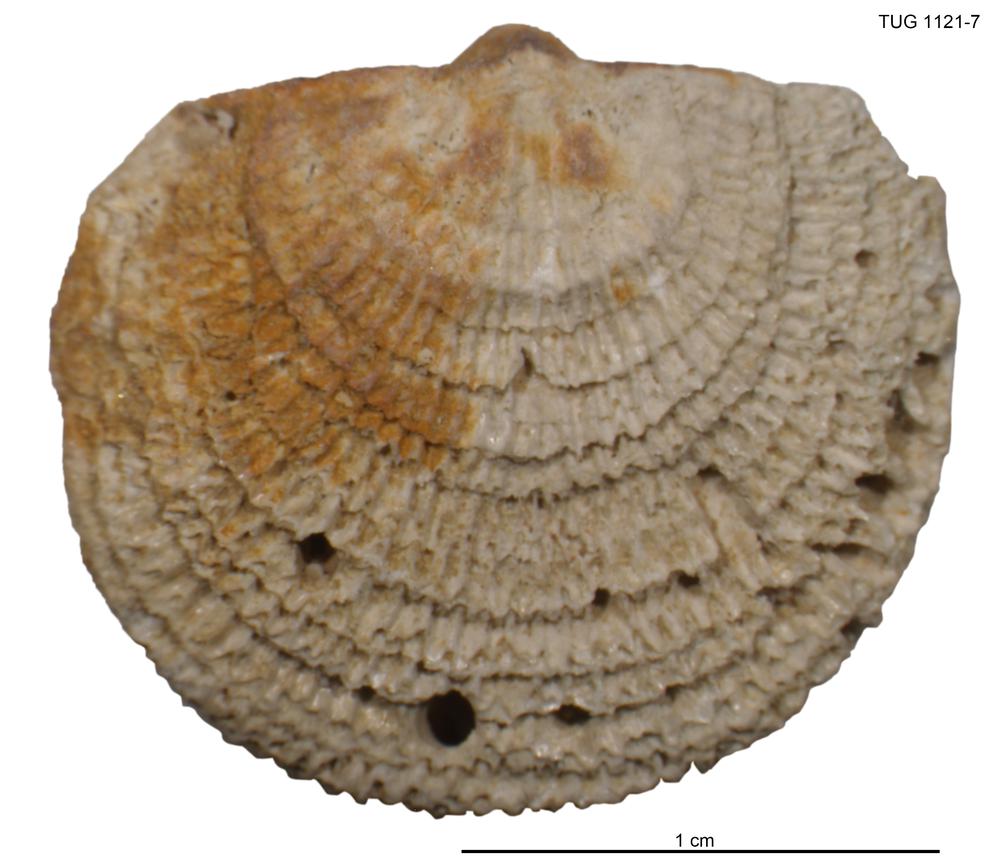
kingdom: Animalia
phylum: Brachiopoda
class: Rhynchonellata
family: Clitambonitidae
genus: Clitambonites
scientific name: Clitambonites Orthisina schmidti
